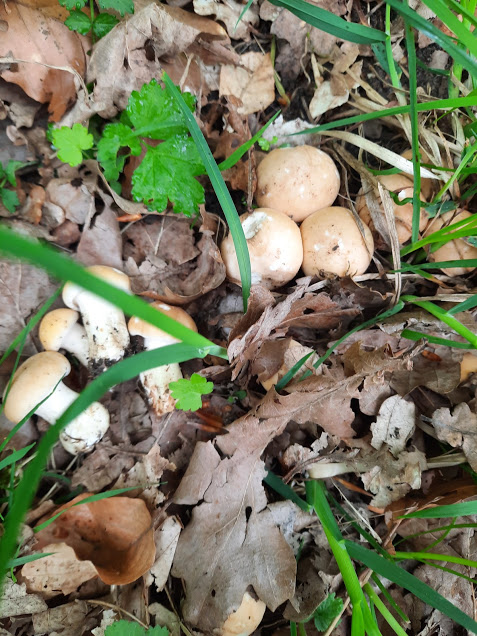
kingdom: Fungi
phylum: Basidiomycota
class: Agaricomycetes
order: Agaricales
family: Lyophyllaceae
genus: Calocybe
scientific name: Calocybe gambosa
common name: vårmusseron
